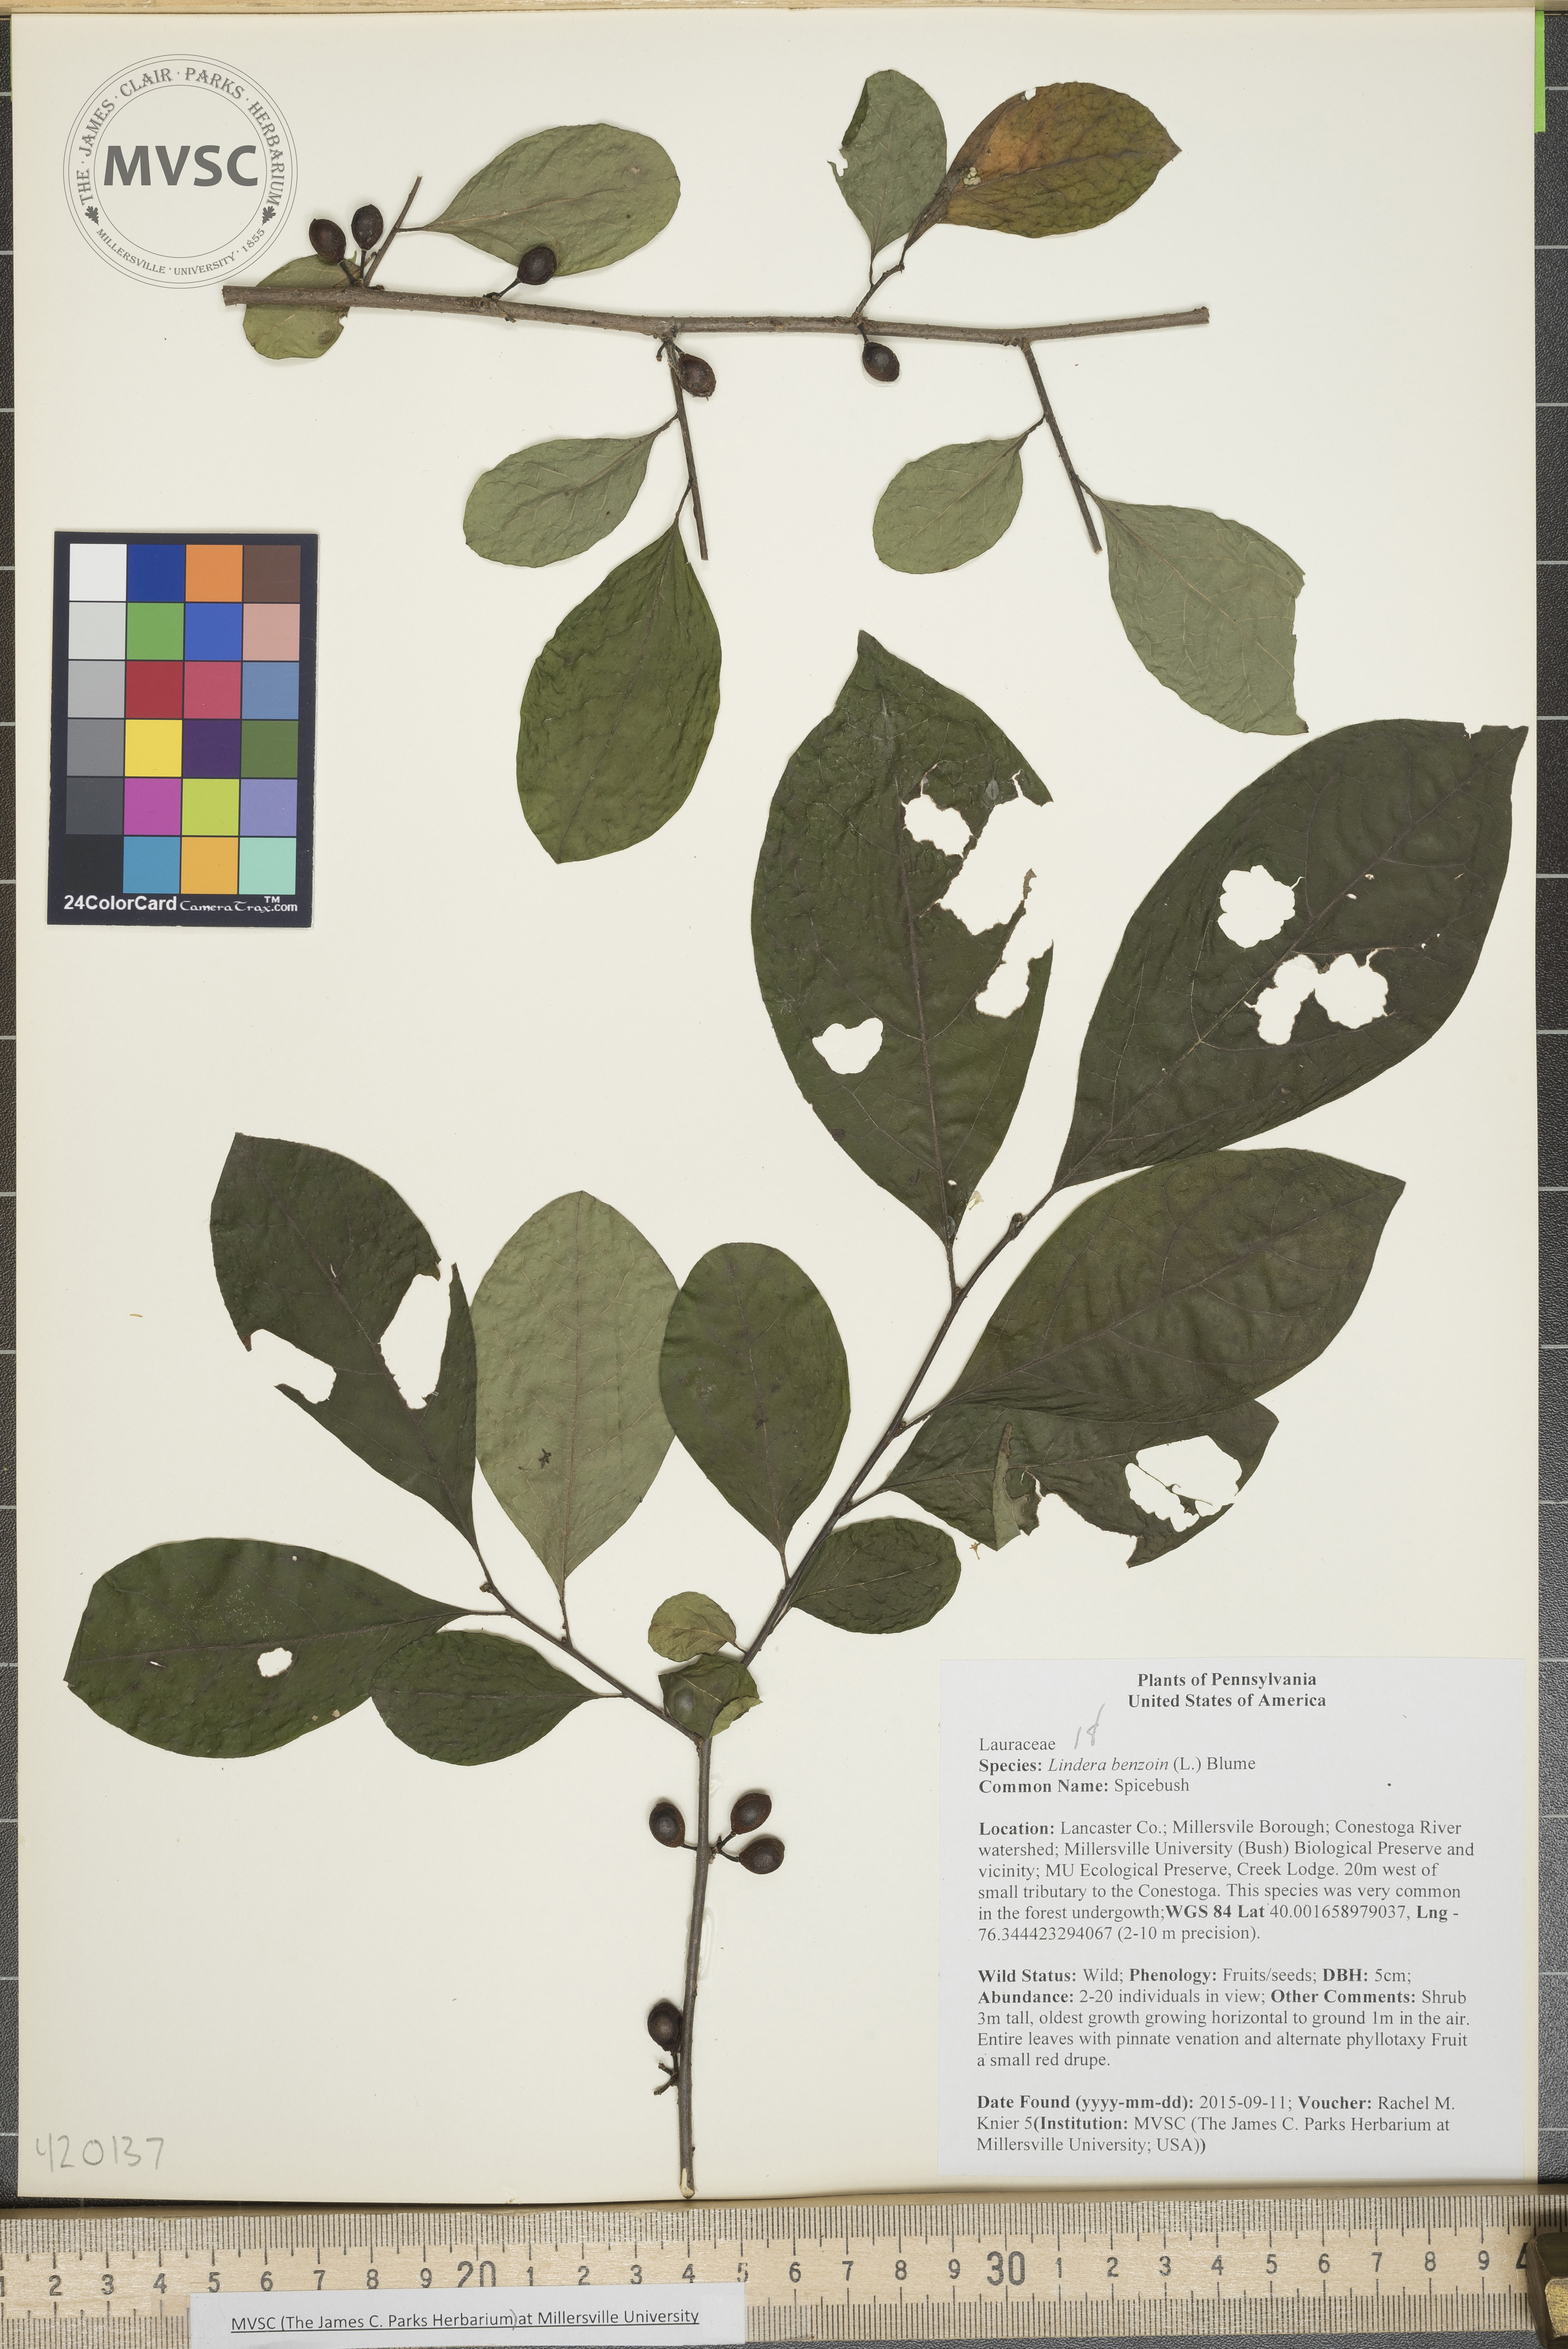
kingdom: Plantae
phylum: Tracheophyta
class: Magnoliopsida
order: Laurales
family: Lauraceae
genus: Lindera
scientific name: Lindera benzoin
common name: Spicebush
